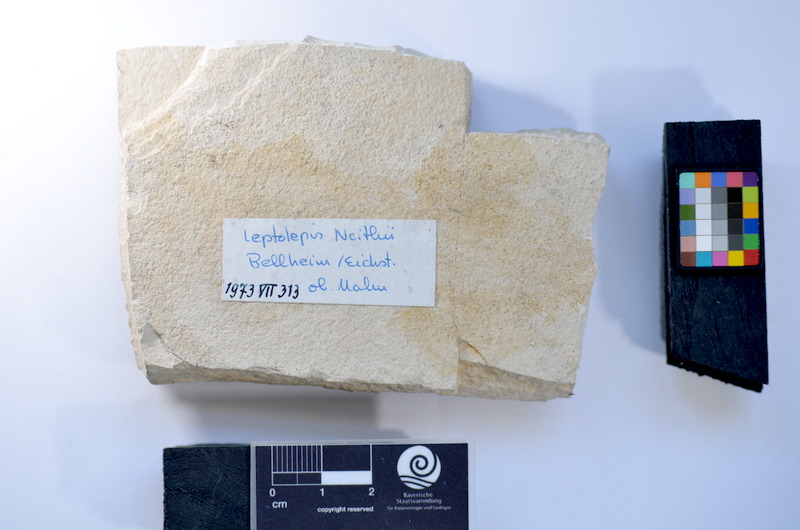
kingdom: Animalia
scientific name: Animalia
